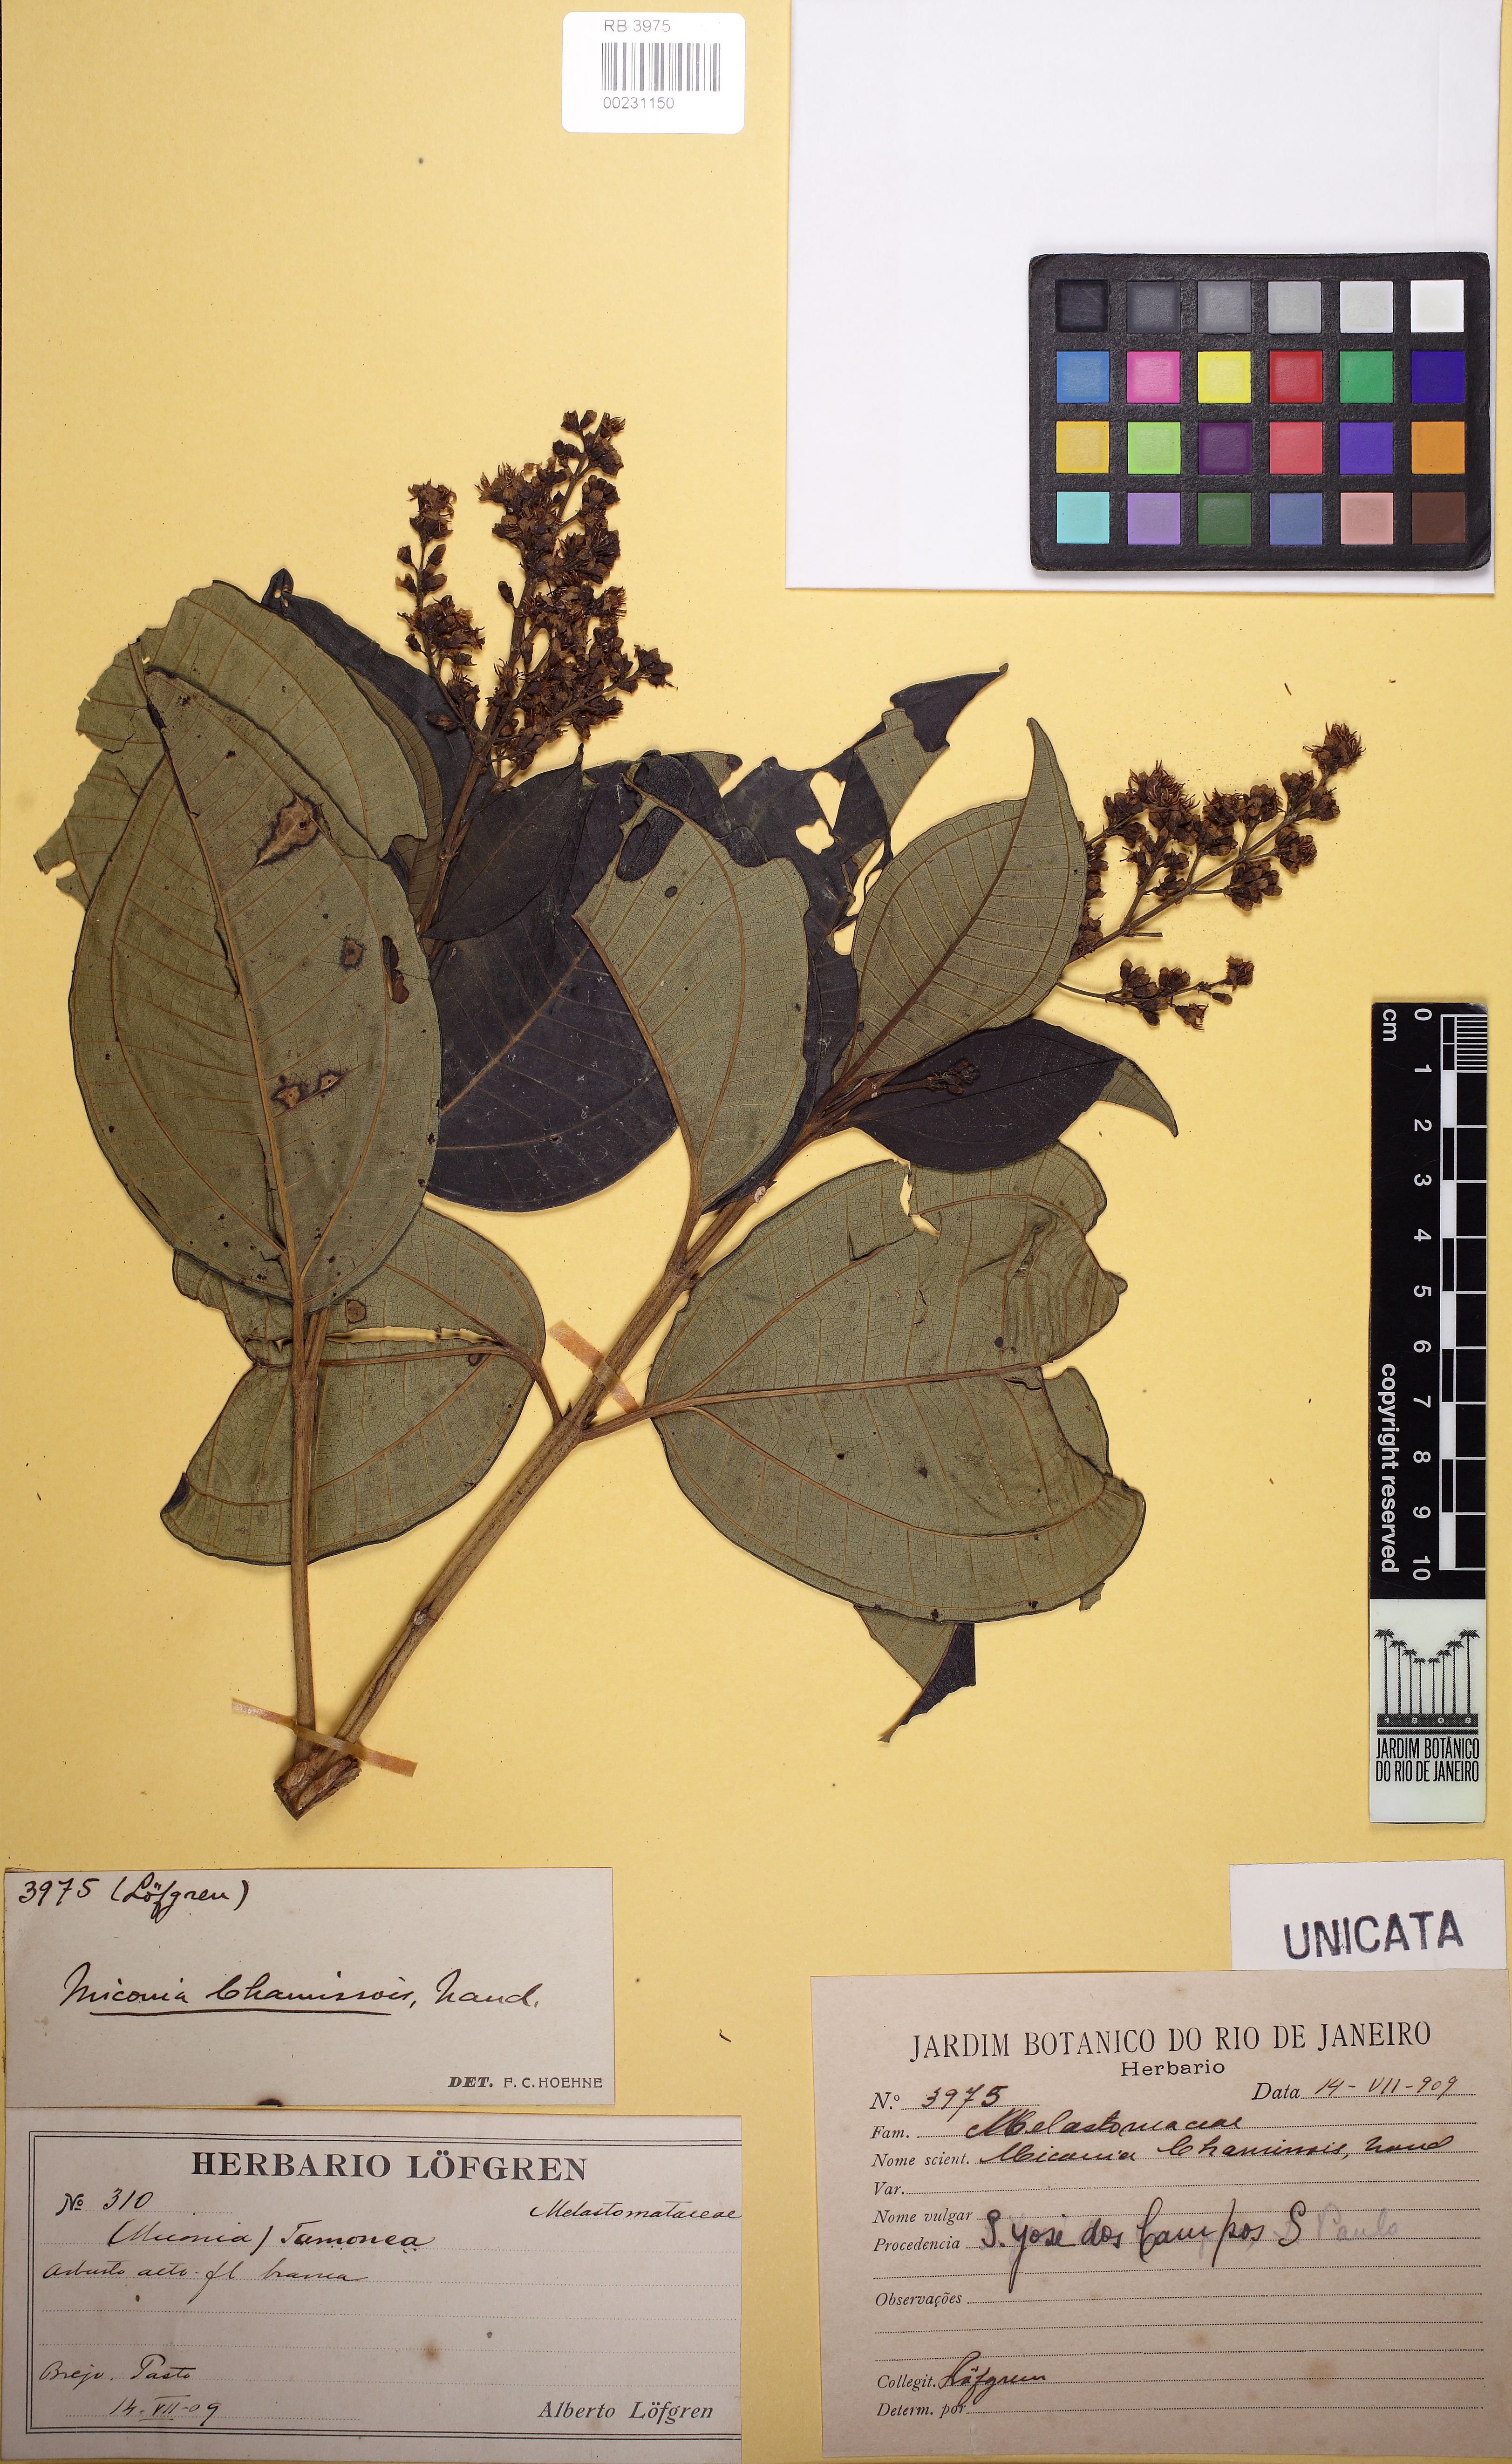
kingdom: Plantae
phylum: Tracheophyta
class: Magnoliopsida
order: Myrtales
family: Melastomataceae
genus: Miconia
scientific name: Miconia chamissois
